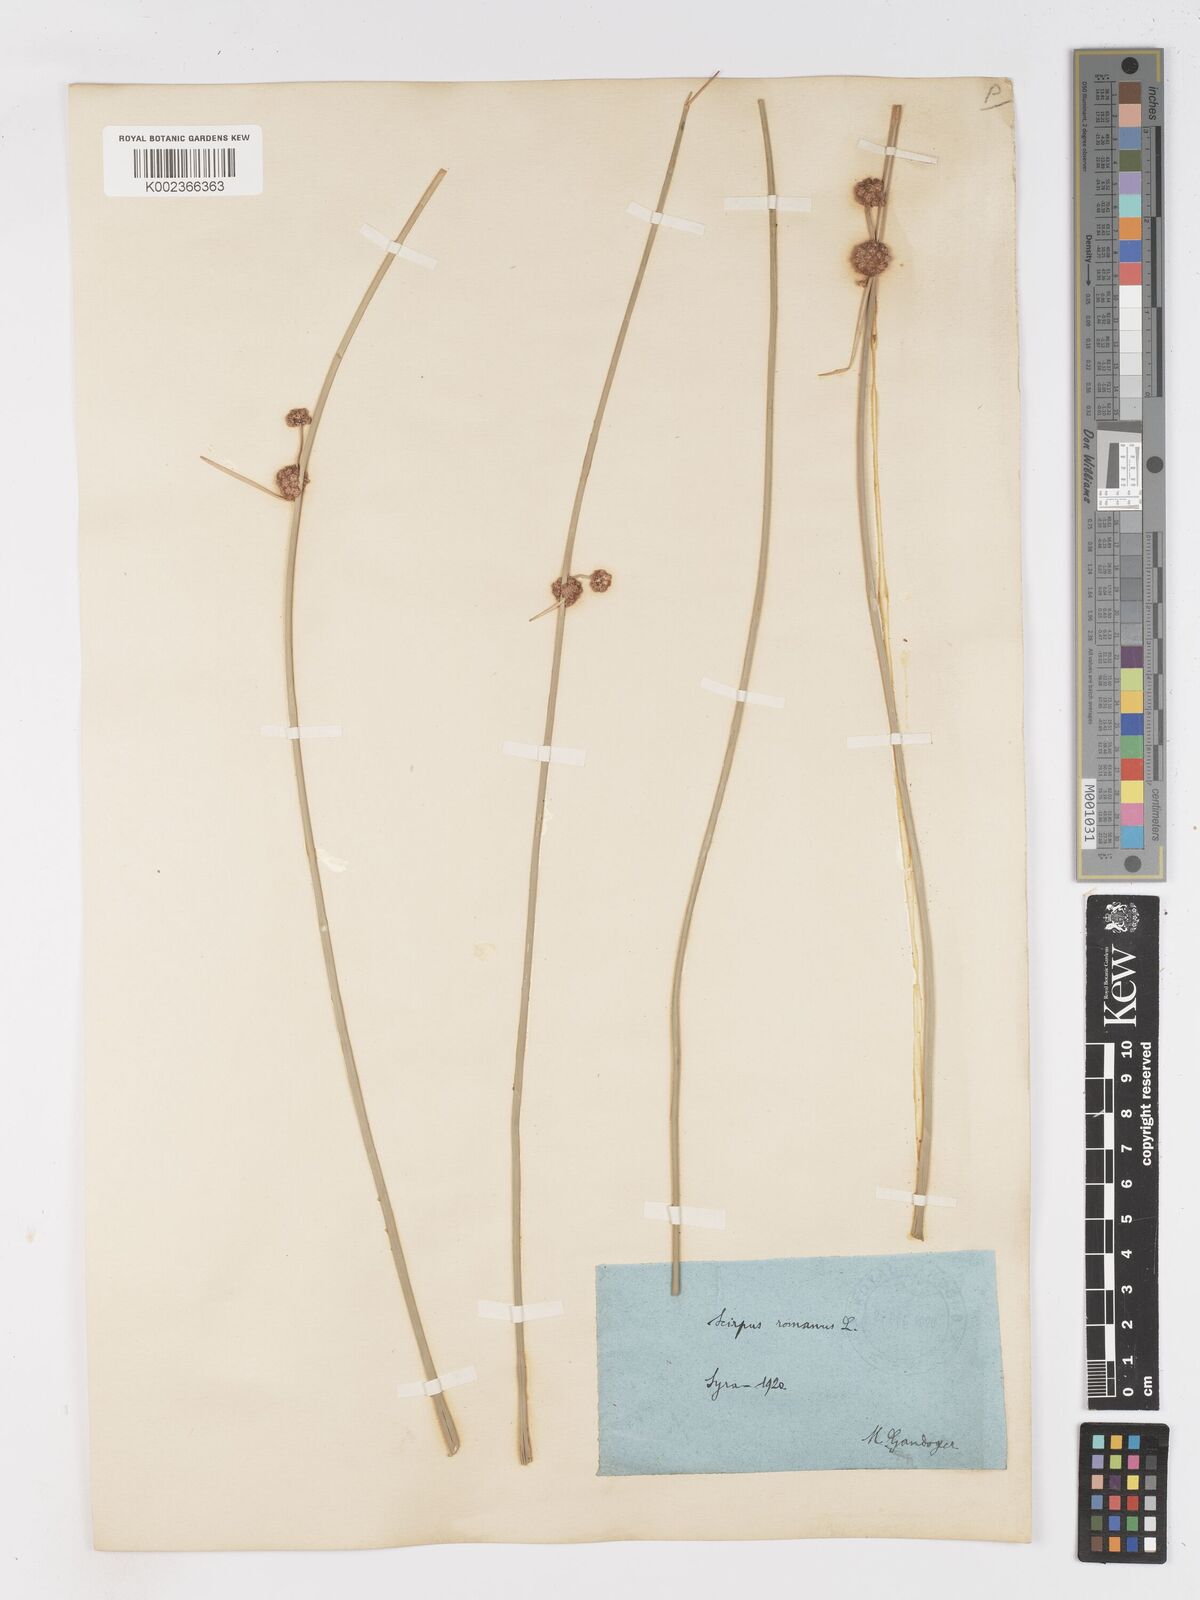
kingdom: Plantae
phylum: Tracheophyta
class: Liliopsida
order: Poales
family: Cyperaceae
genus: Scirpoides
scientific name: Scirpoides holoschoenus
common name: Round-headed club-rush
